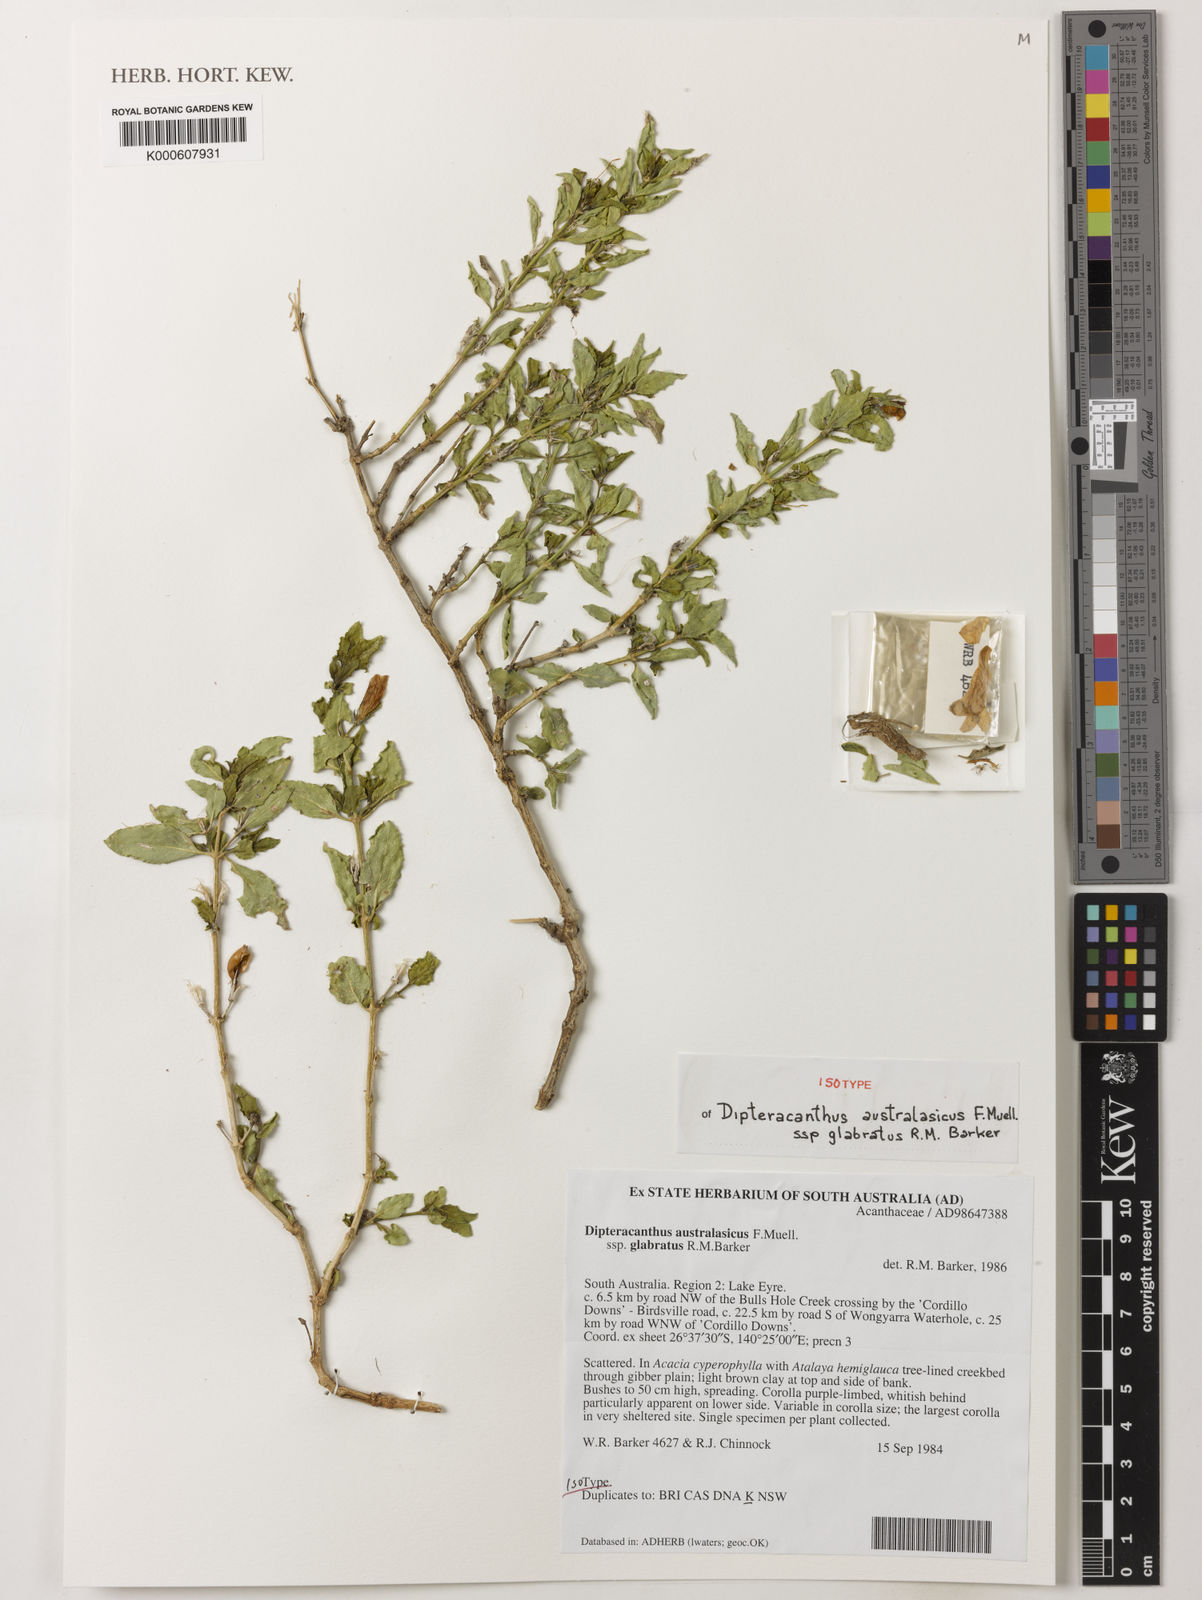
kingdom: Plantae
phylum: Tracheophyta
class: Magnoliopsida
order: Lamiales
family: Acanthaceae
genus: Dicliptera
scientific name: Dicliptera
